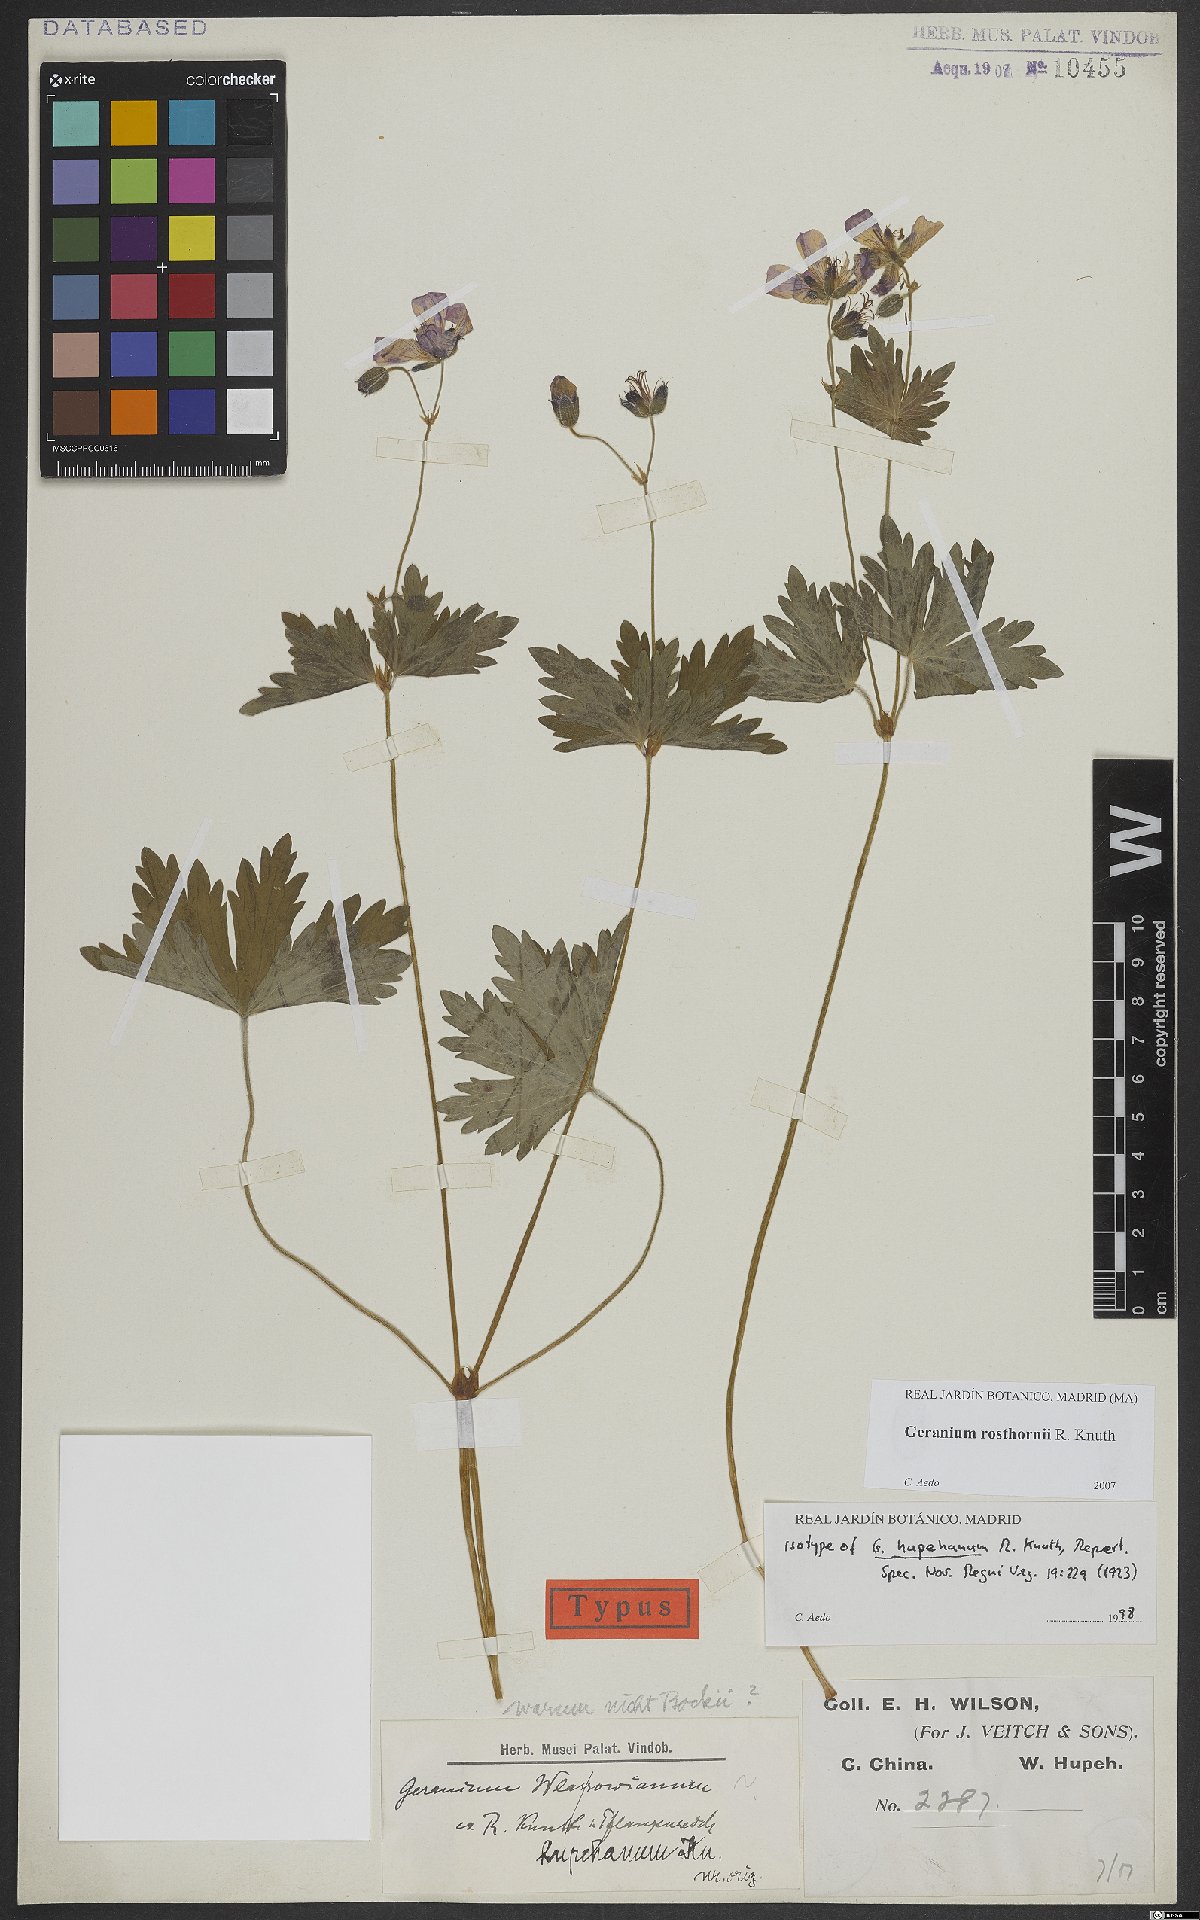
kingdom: Plantae
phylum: Tracheophyta
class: Magnoliopsida
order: Geraniales
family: Geraniaceae
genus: Geranium
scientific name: Geranium rosthornii
